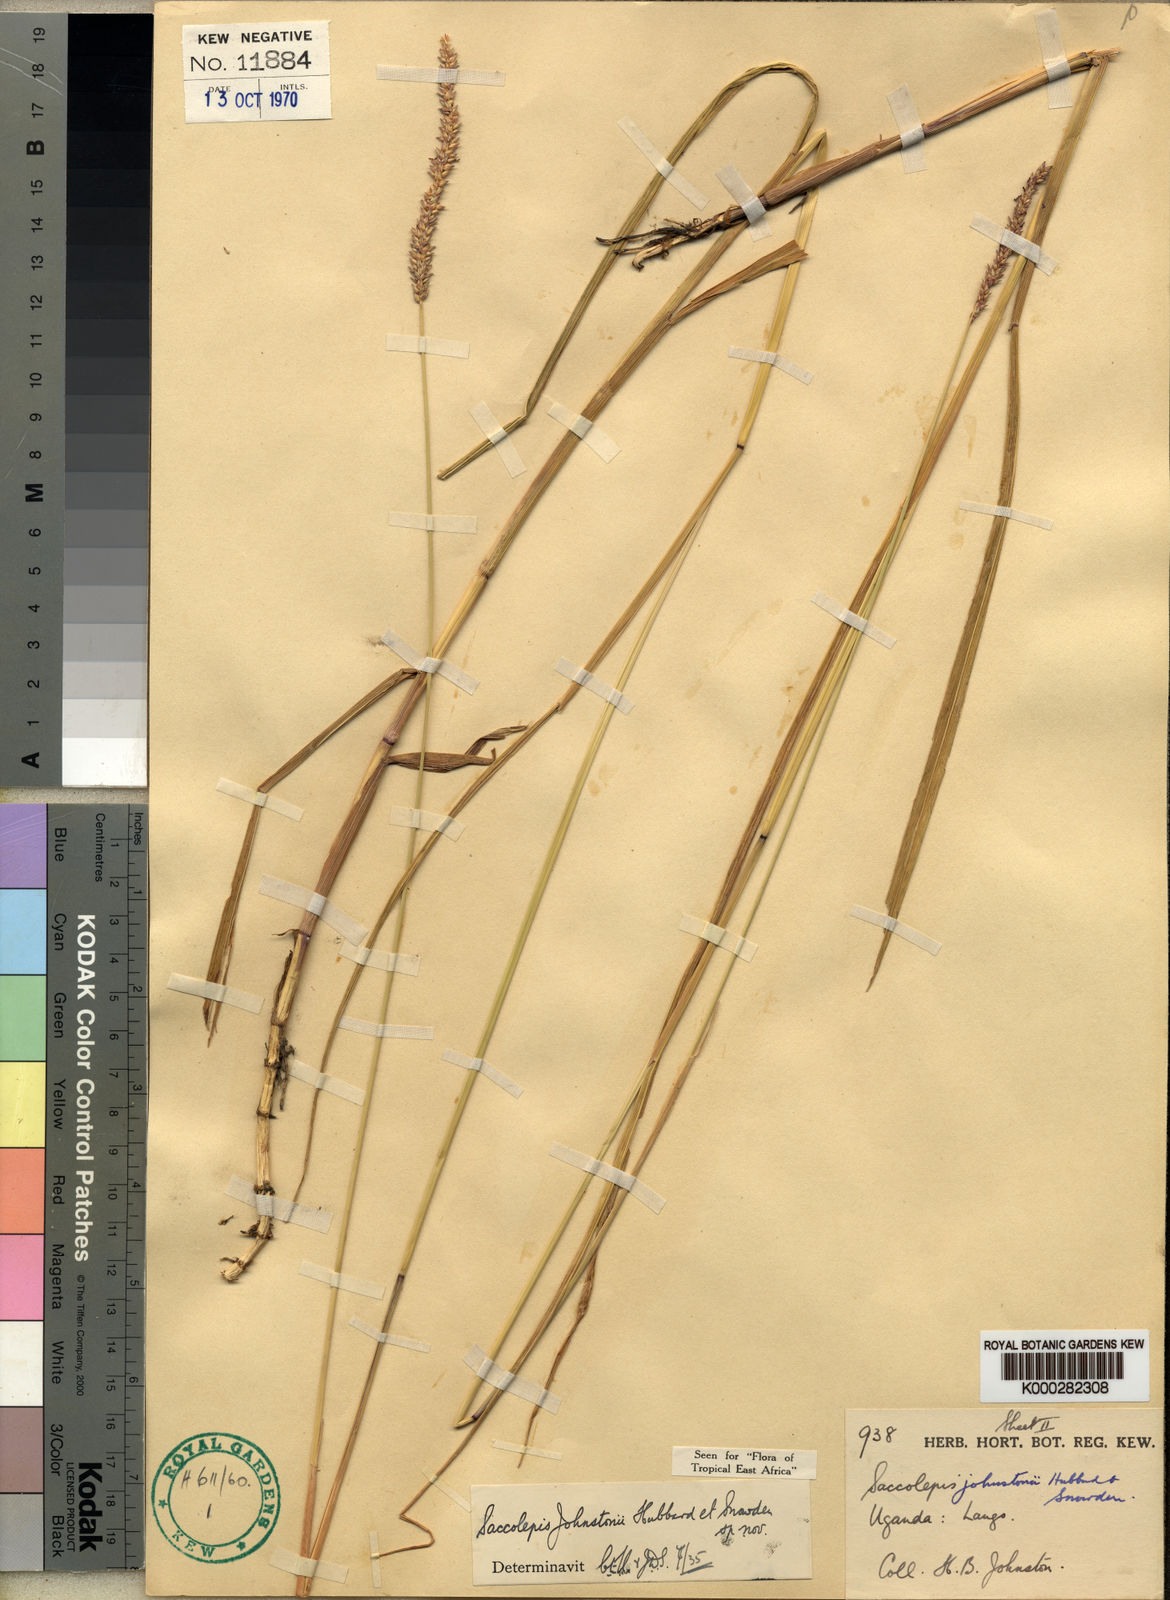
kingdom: Plantae
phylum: Tracheophyta
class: Liliopsida
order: Poales
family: Poaceae
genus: Sacciolepis
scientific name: Sacciolepis leptorrhachis
